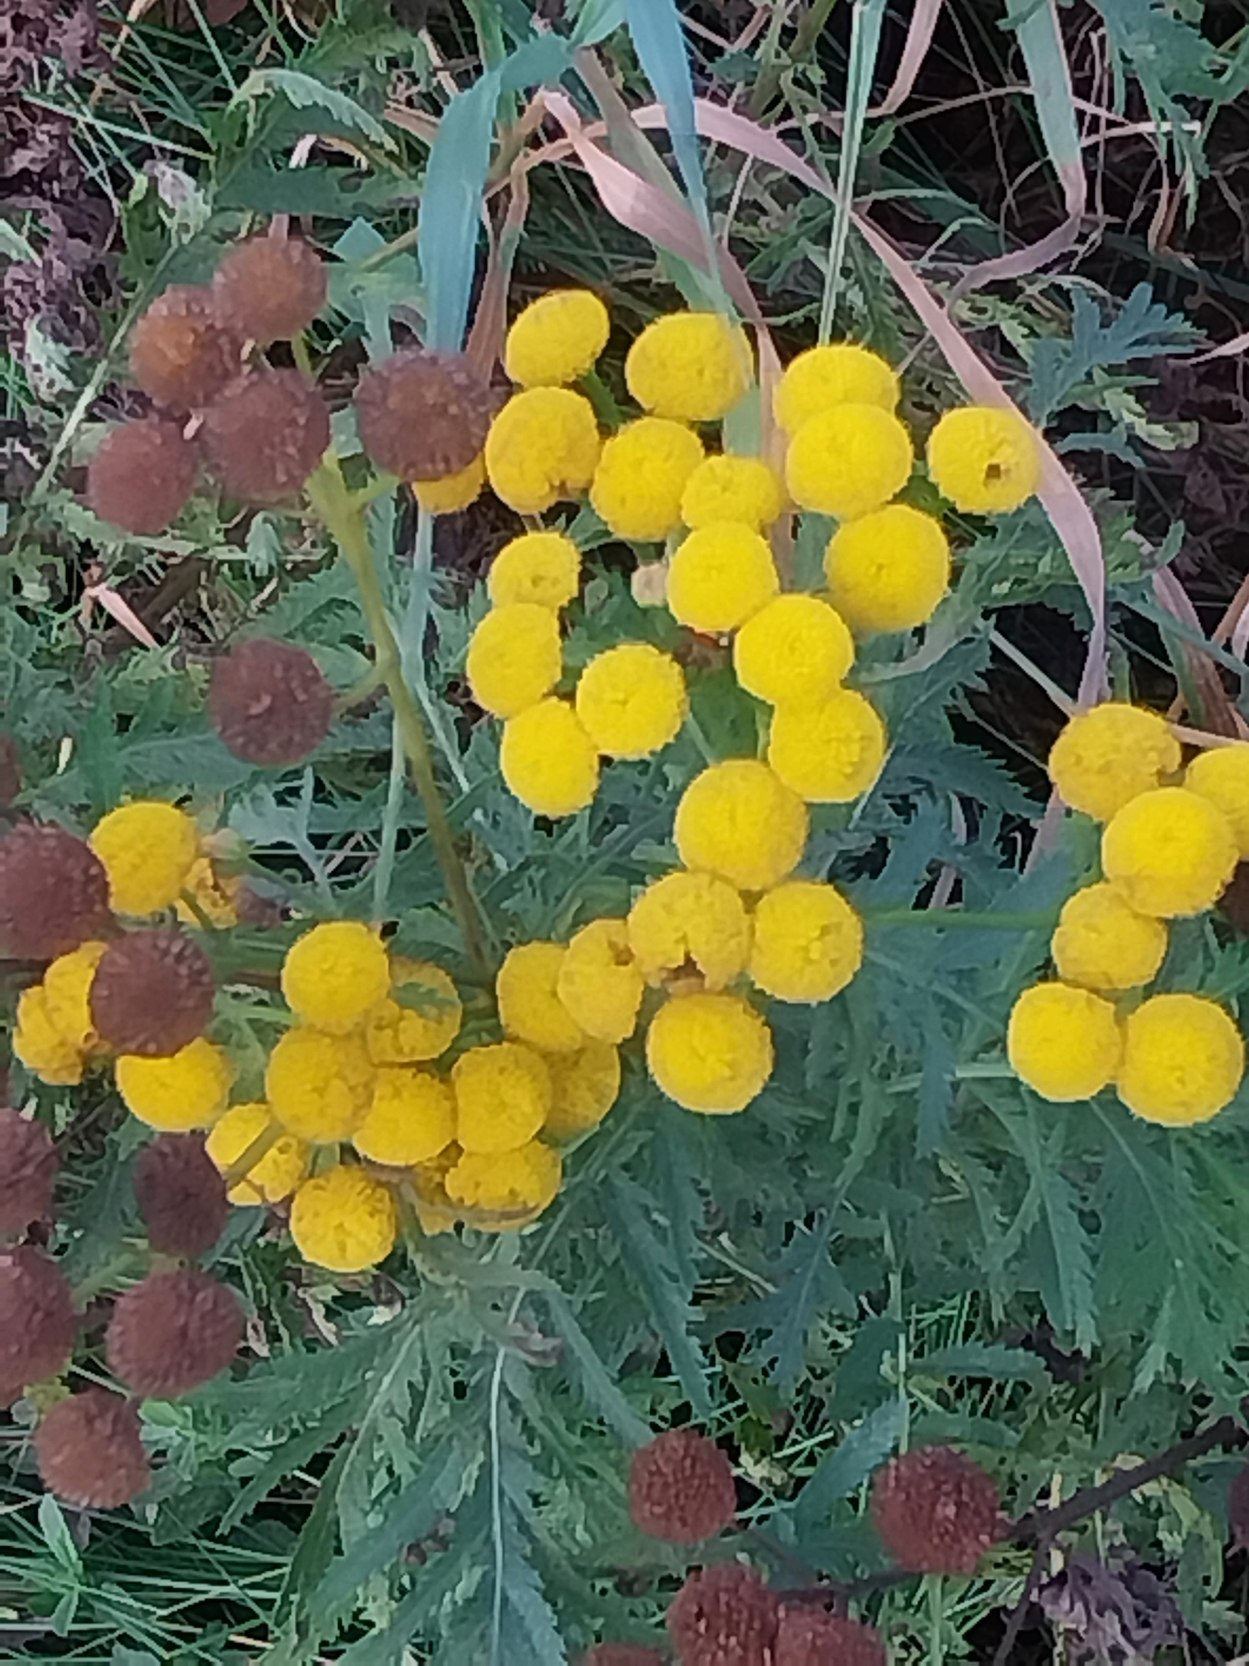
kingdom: Plantae
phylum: Tracheophyta
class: Magnoliopsida
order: Asterales
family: Asteraceae
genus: Tanacetum
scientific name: Tanacetum vulgare
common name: Rejnfan
